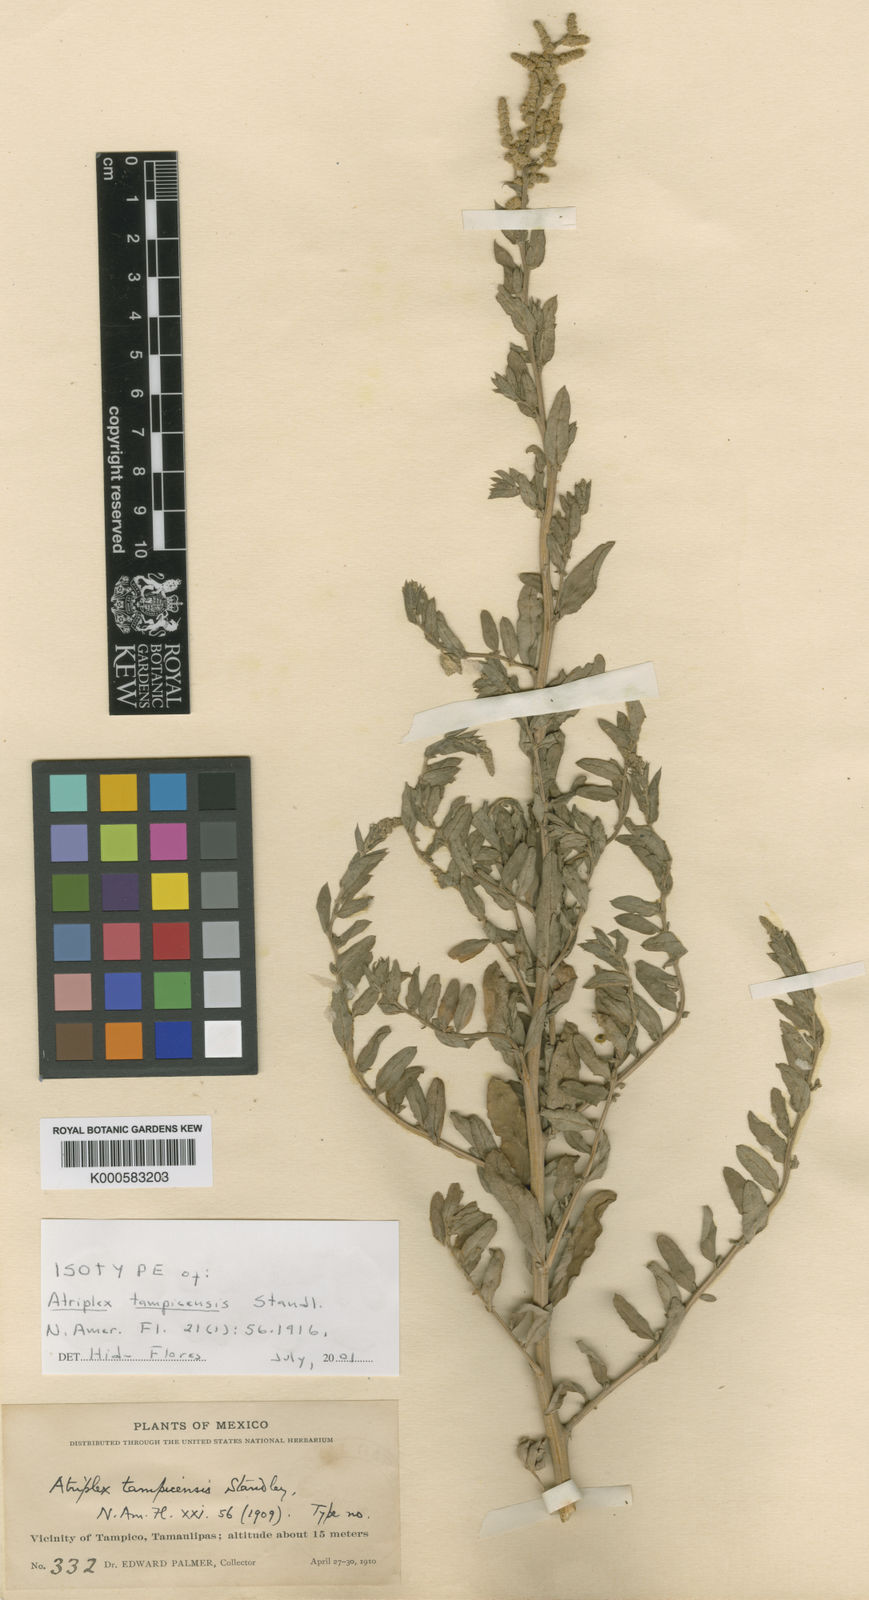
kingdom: Plantae
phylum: Tracheophyta
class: Magnoliopsida
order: Caryophyllales
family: Amaranthaceae
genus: Atriplex
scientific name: Atriplex tampicensis
